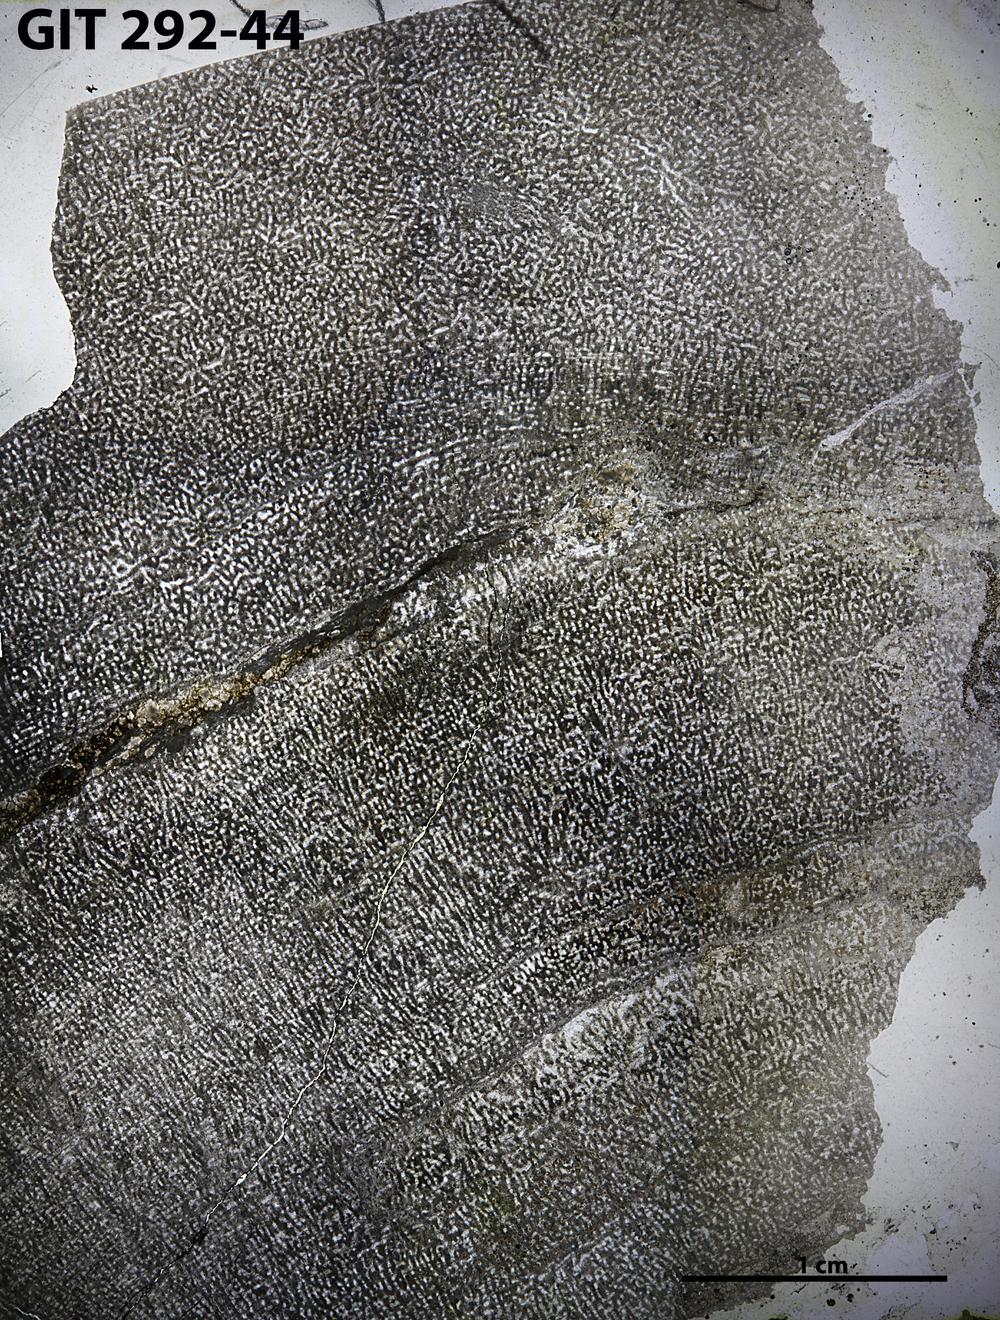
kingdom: Animalia
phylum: Porifera
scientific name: Porifera
